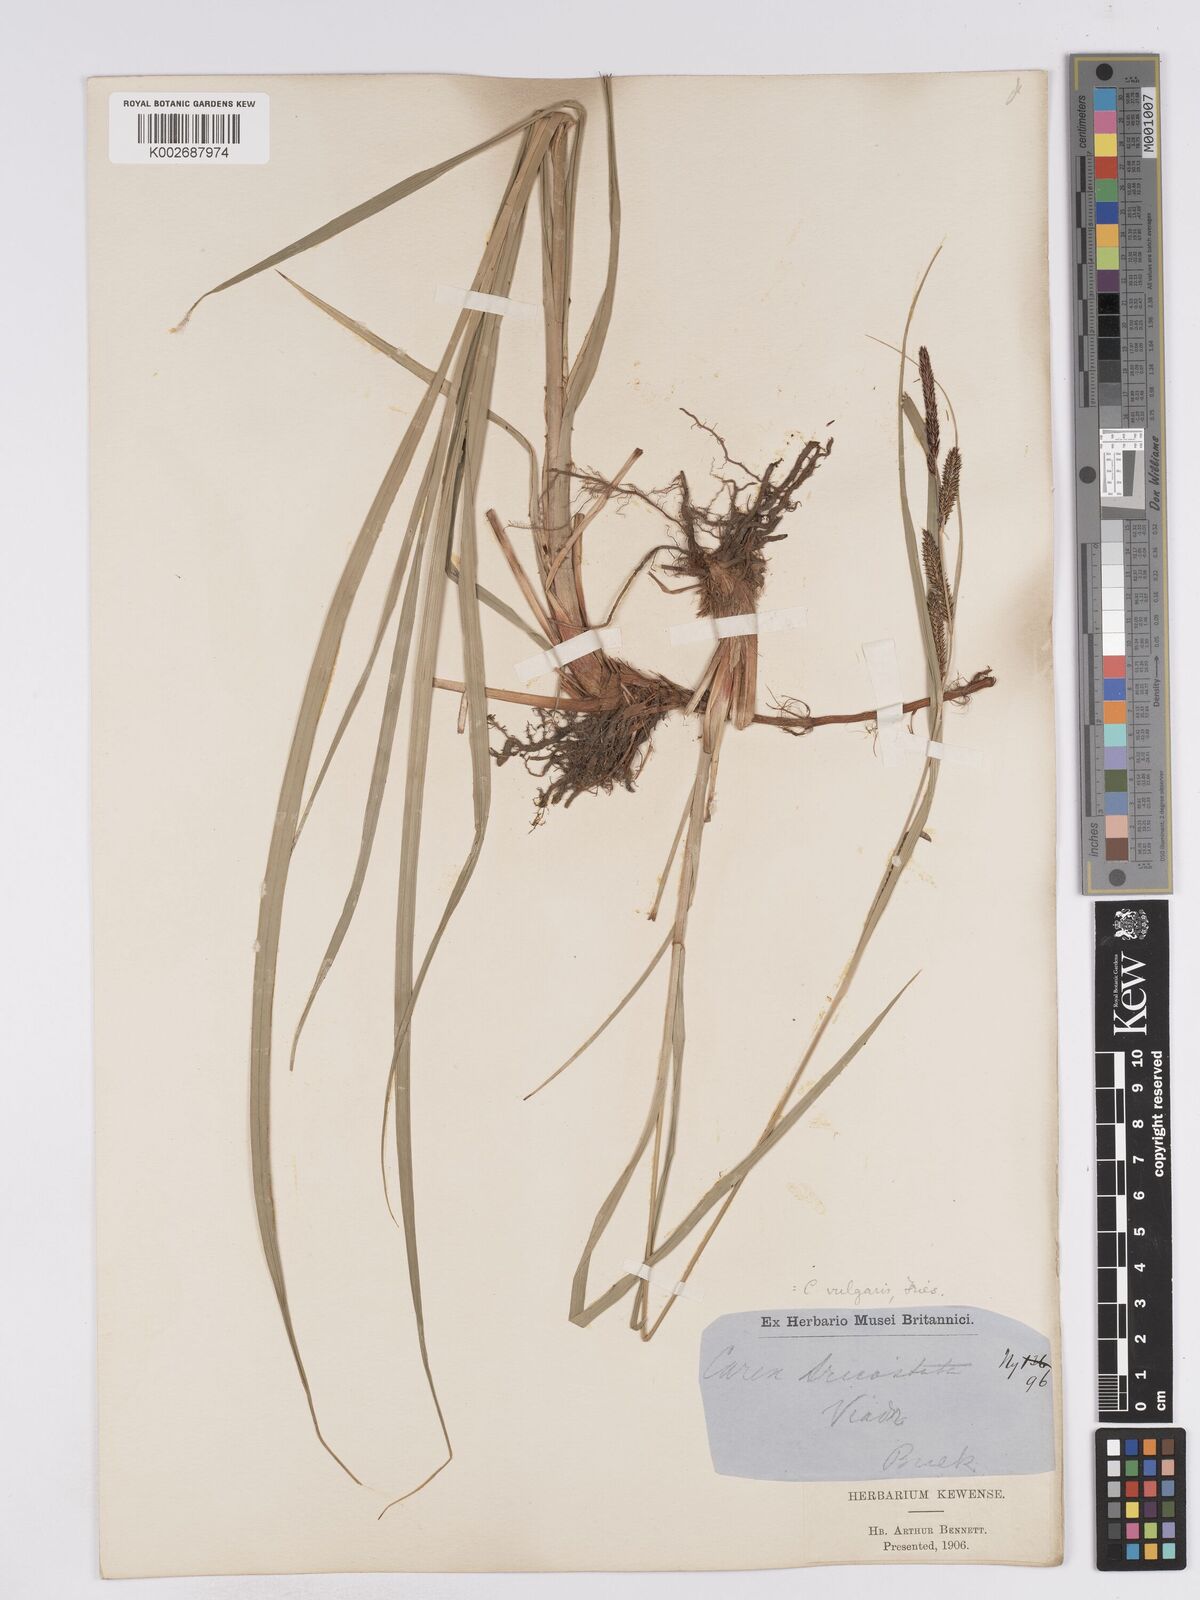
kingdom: Plantae
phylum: Tracheophyta
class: Liliopsida
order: Poales
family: Cyperaceae
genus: Carex
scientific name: Carex acuta
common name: Slender tufted-sedge
